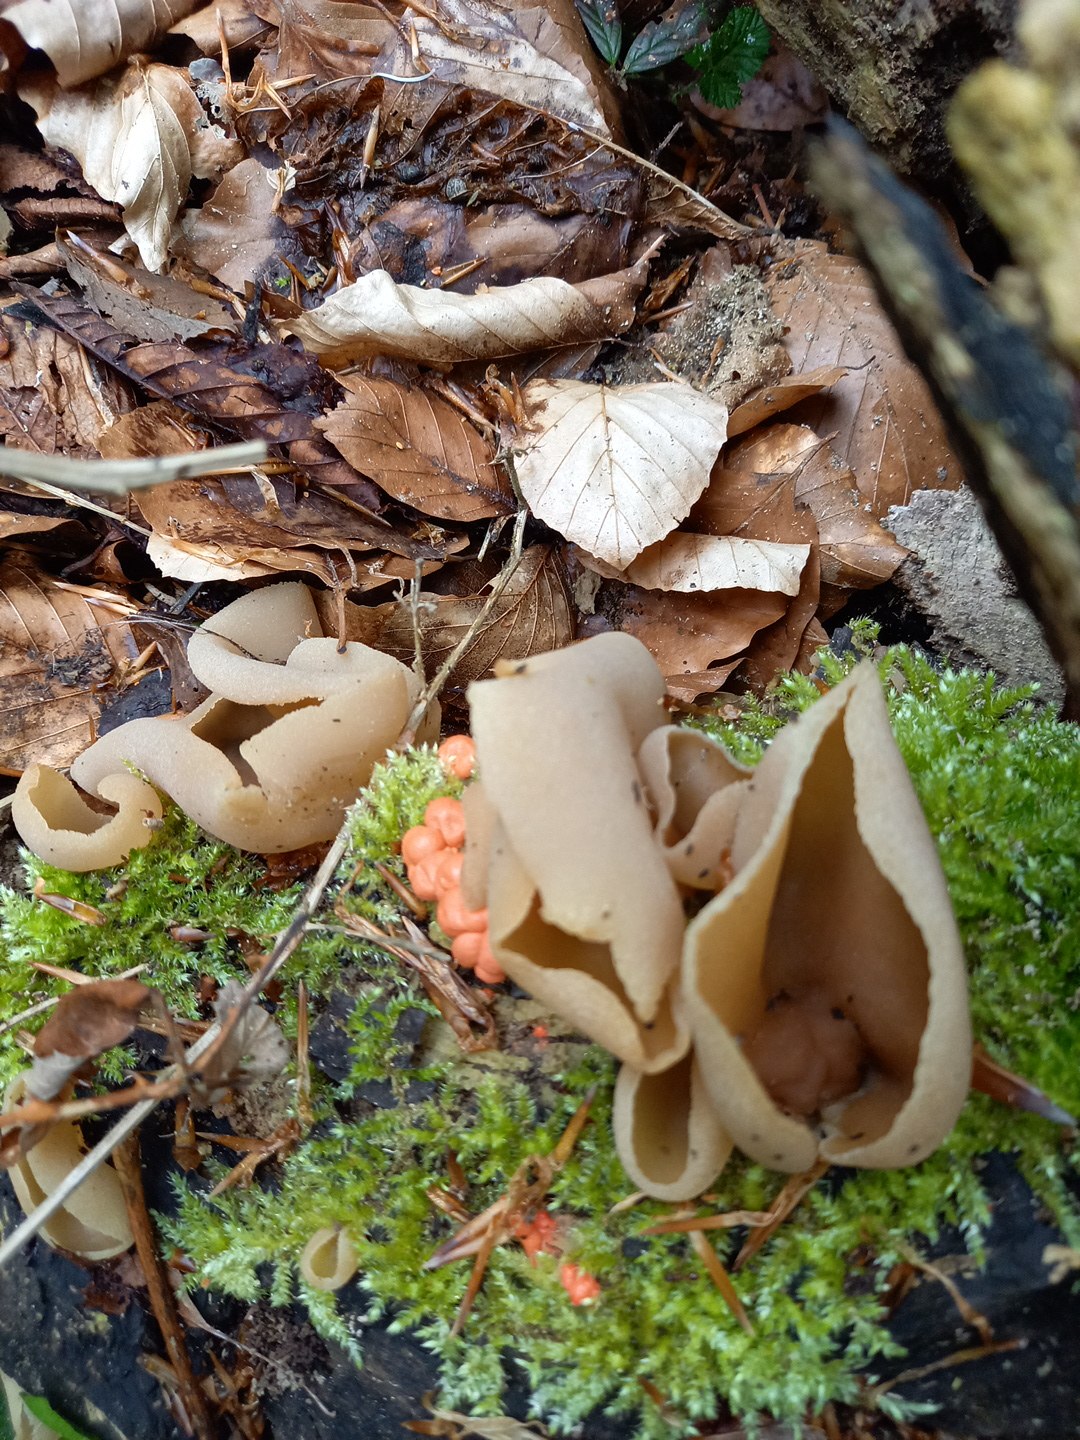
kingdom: Fungi
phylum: Ascomycota
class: Pezizomycetes
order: Pezizales
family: Pezizaceae
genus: Peziza
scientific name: Peziza varia
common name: Ved-bægersvamp
